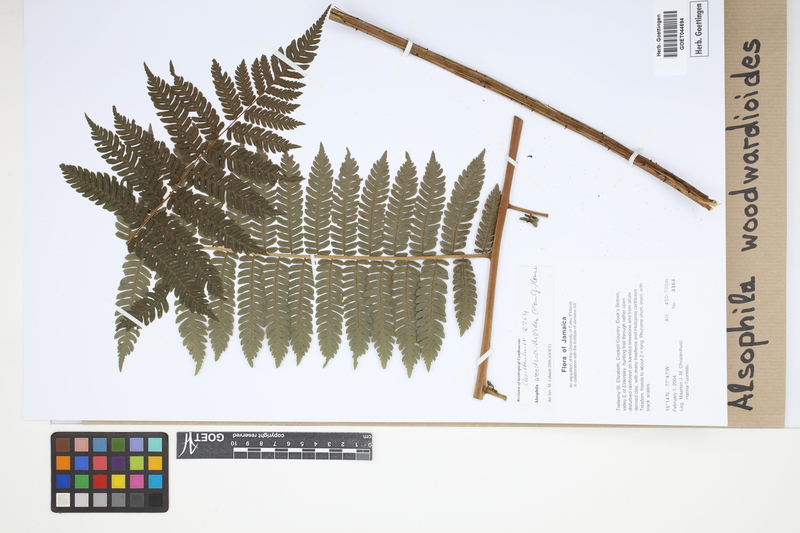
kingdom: Plantae
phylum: Tracheophyta
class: Polypodiopsida
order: Cyatheales
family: Cyatheaceae
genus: Alsophila
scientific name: Alsophila woodwardioides
